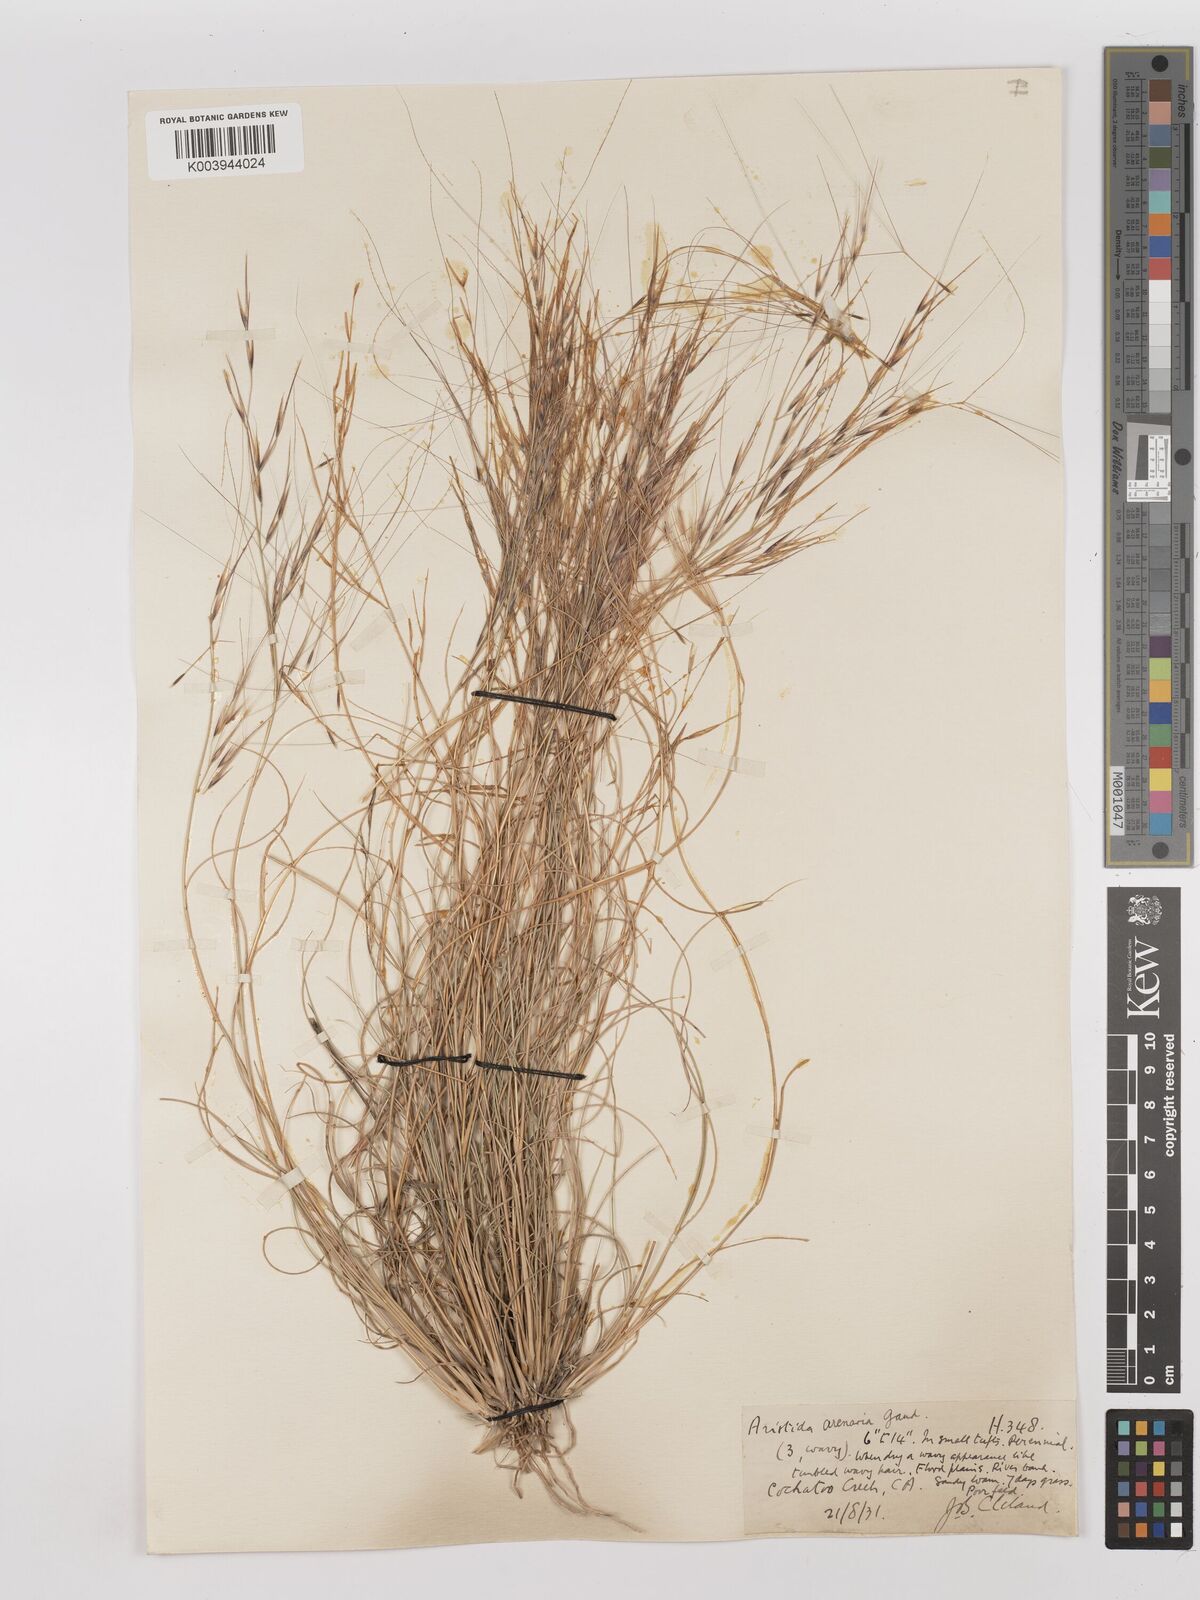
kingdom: Plantae
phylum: Tracheophyta
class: Liliopsida
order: Poales
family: Poaceae
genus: Aristida
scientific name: Aristida contorta
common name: Bunch kerosene grass
